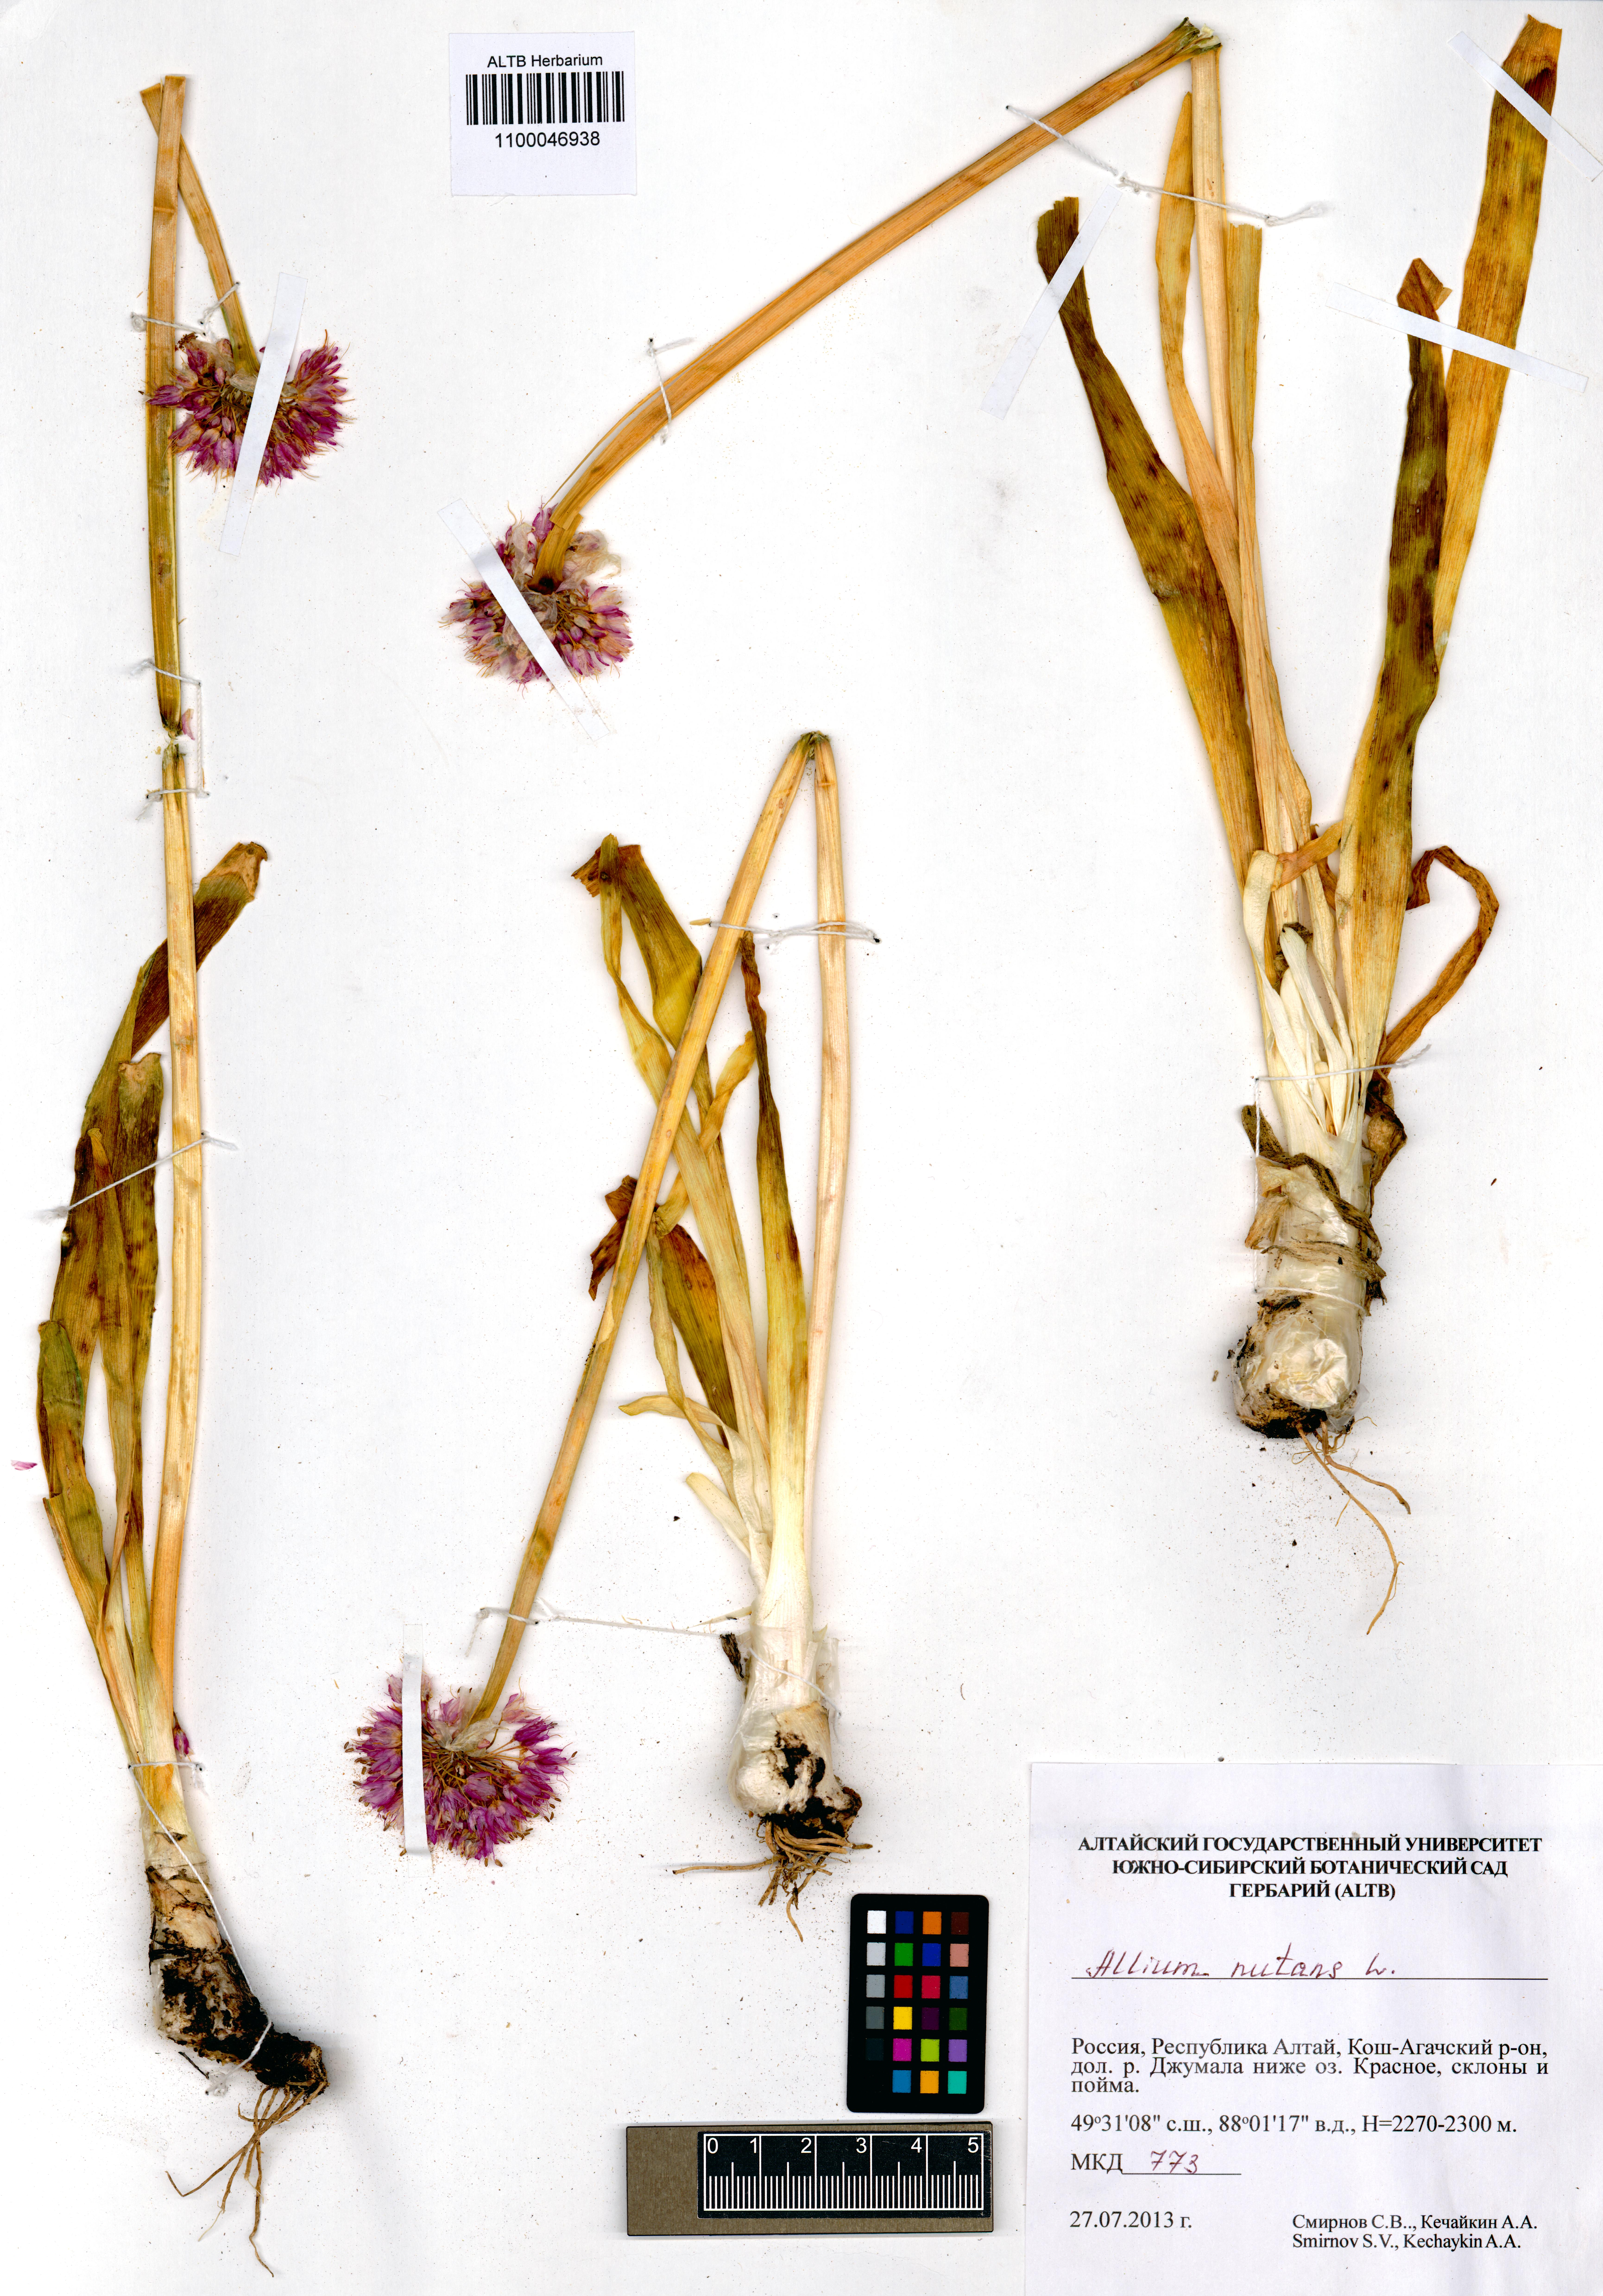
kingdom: Plantae
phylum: Tracheophyta
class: Liliopsida
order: Asparagales
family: Amaryllidaceae
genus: Allium
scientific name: Allium nutans
